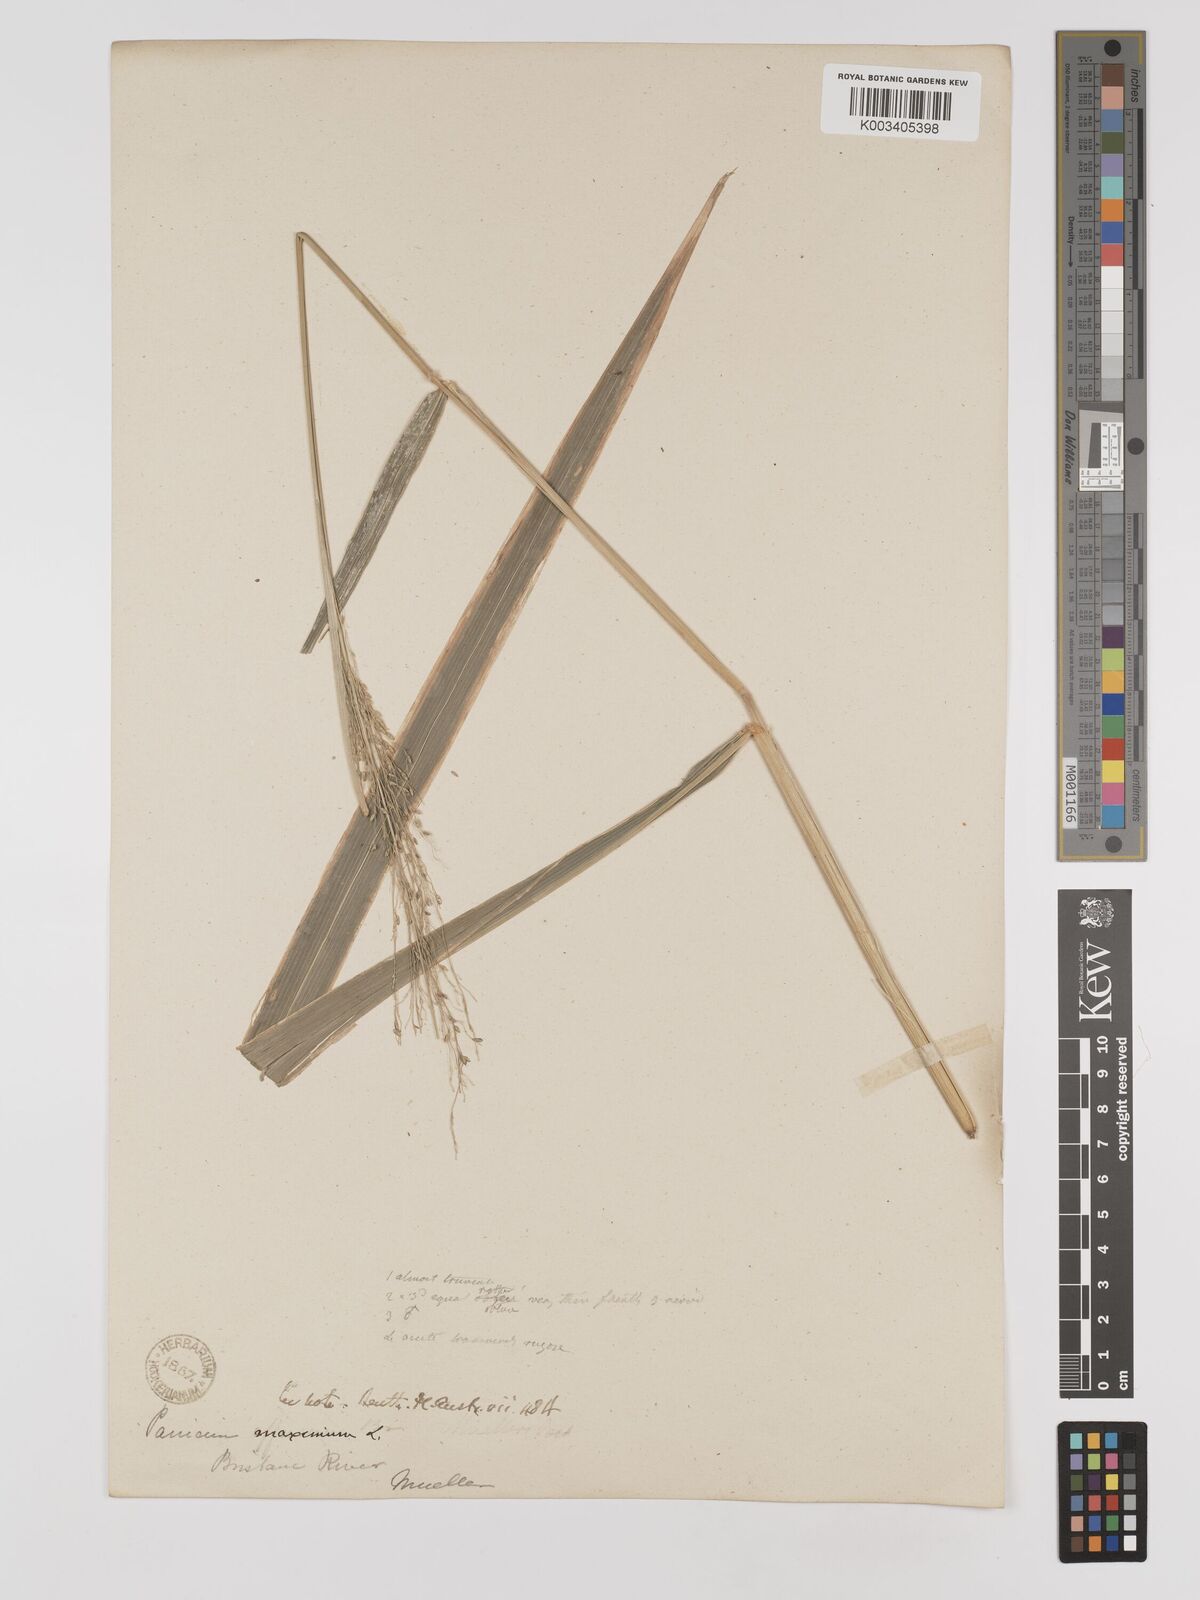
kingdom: Plantae
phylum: Tracheophyta
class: Liliopsida
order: Poales
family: Poaceae
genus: Megathyrsus
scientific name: Megathyrsus maximus
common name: Guineagrass
